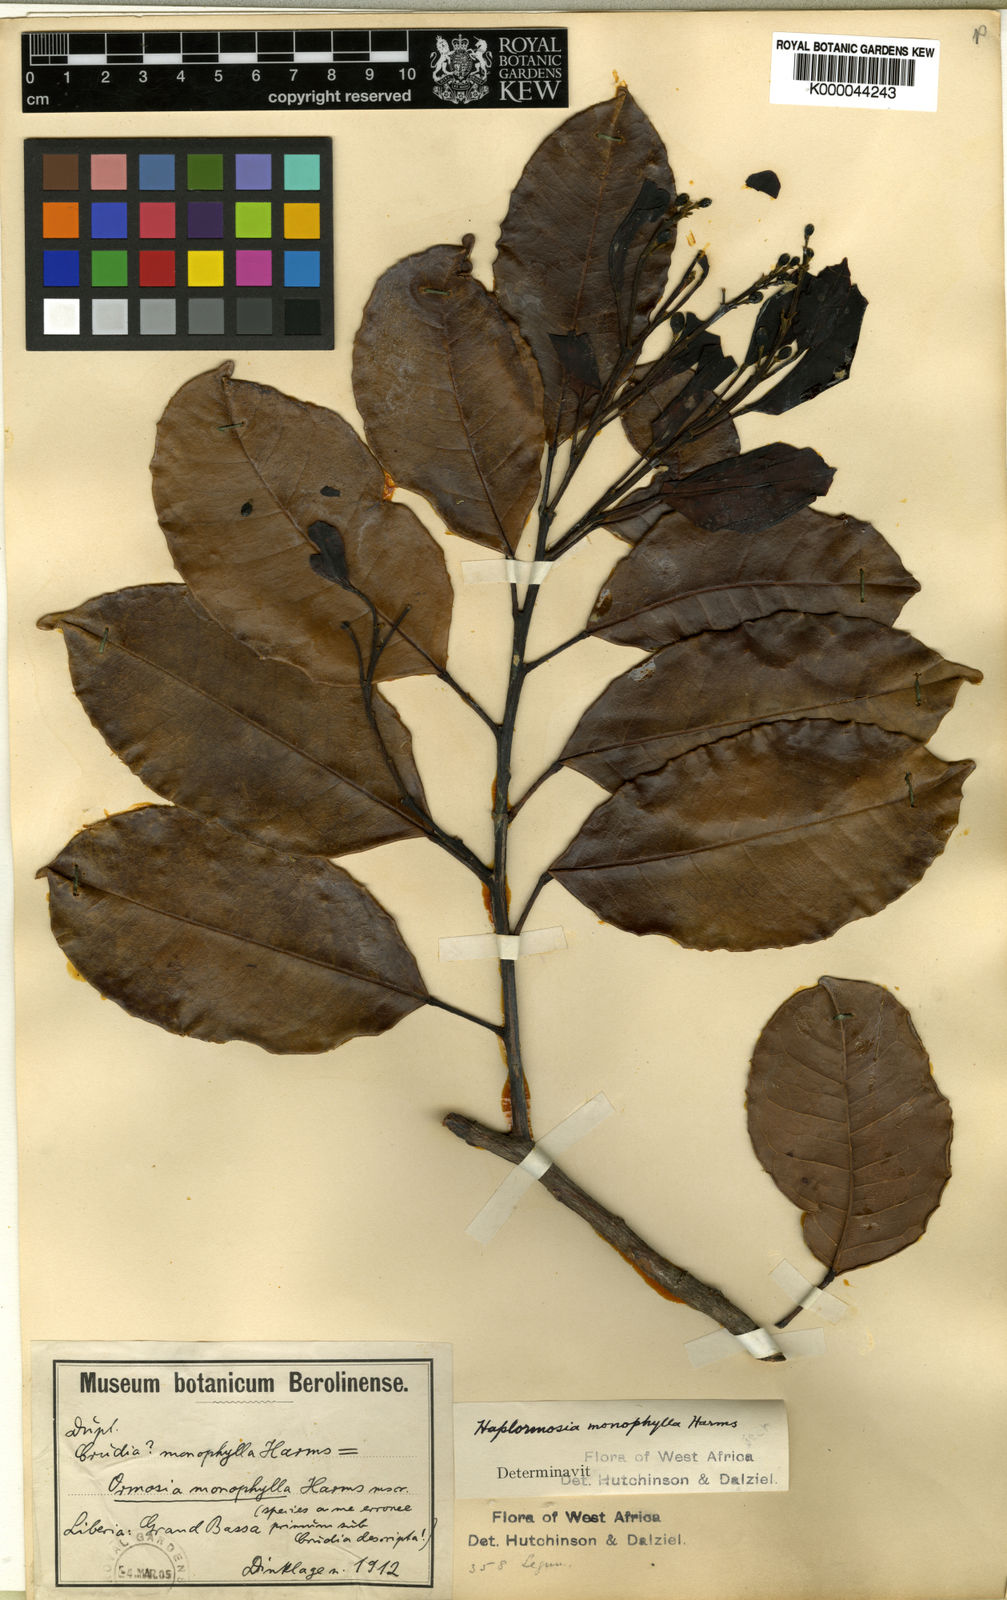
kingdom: Plantae
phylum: Tracheophyta
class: Magnoliopsida
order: Fabales
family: Fabaceae
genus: Haplormosia
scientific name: Haplormosia monophylla
